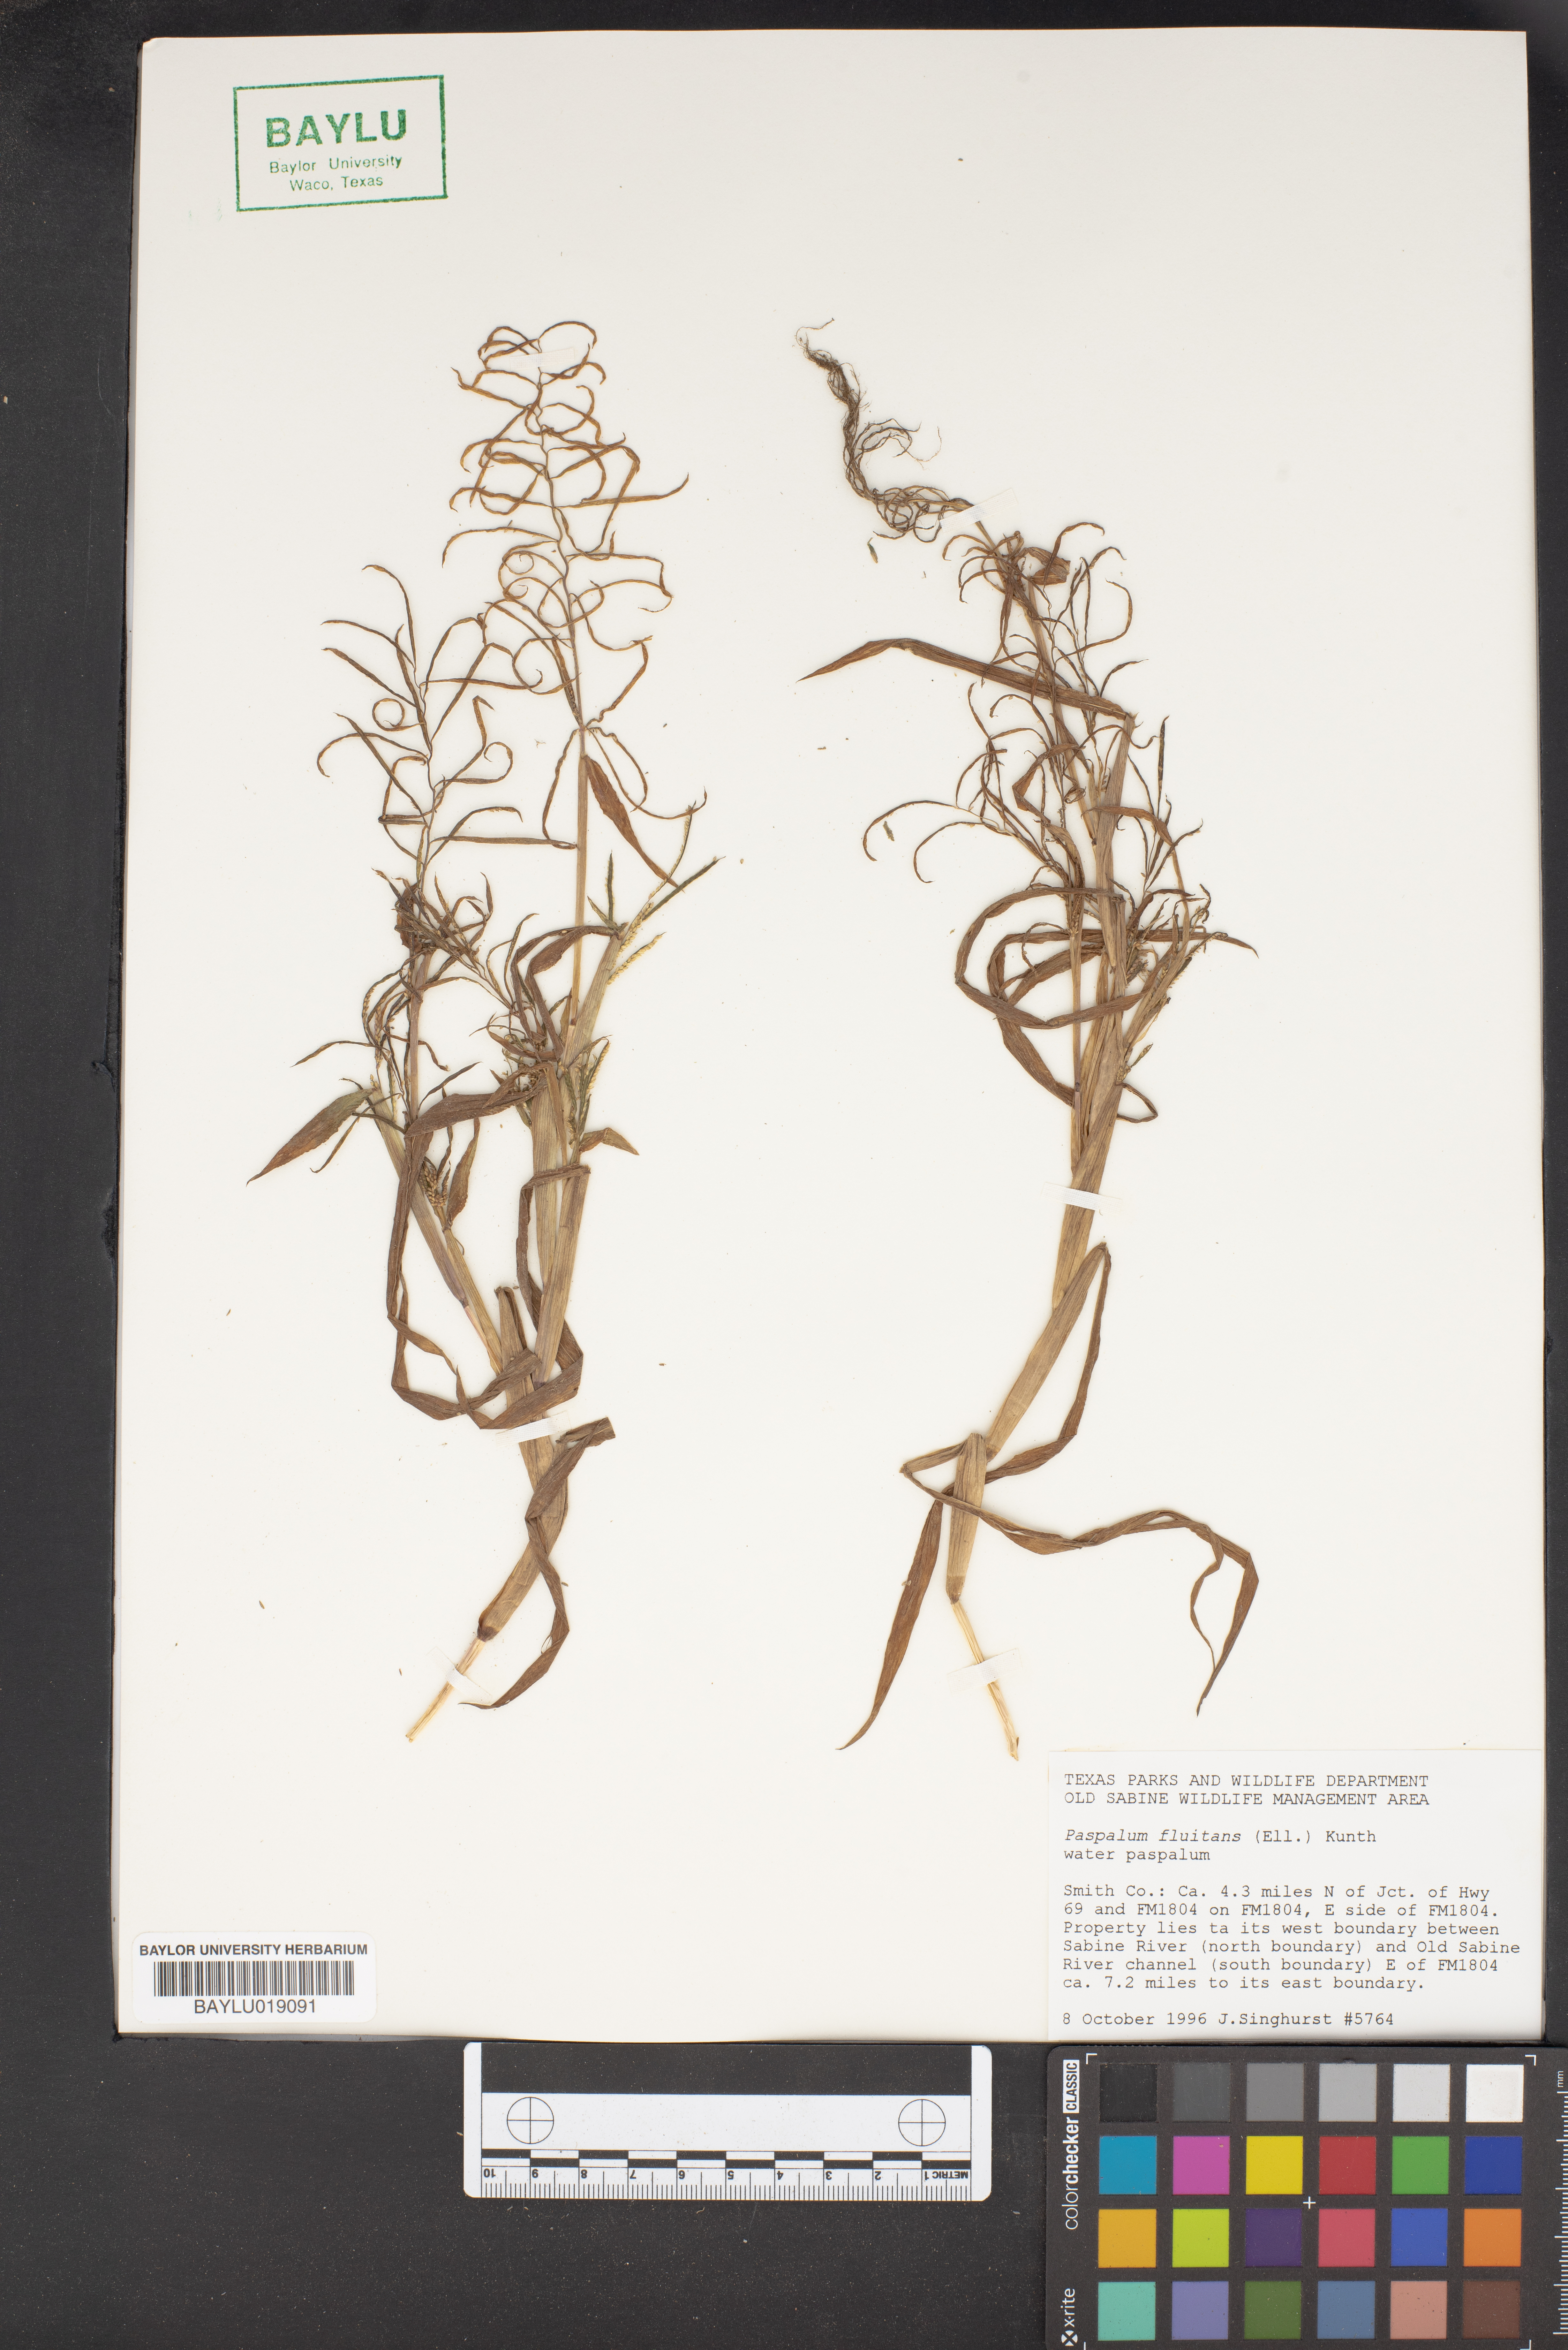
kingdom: Plantae
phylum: Tracheophyta
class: Liliopsida
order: Poales
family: Poaceae
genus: Paspalum
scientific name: Paspalum repens
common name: Water paspalum
